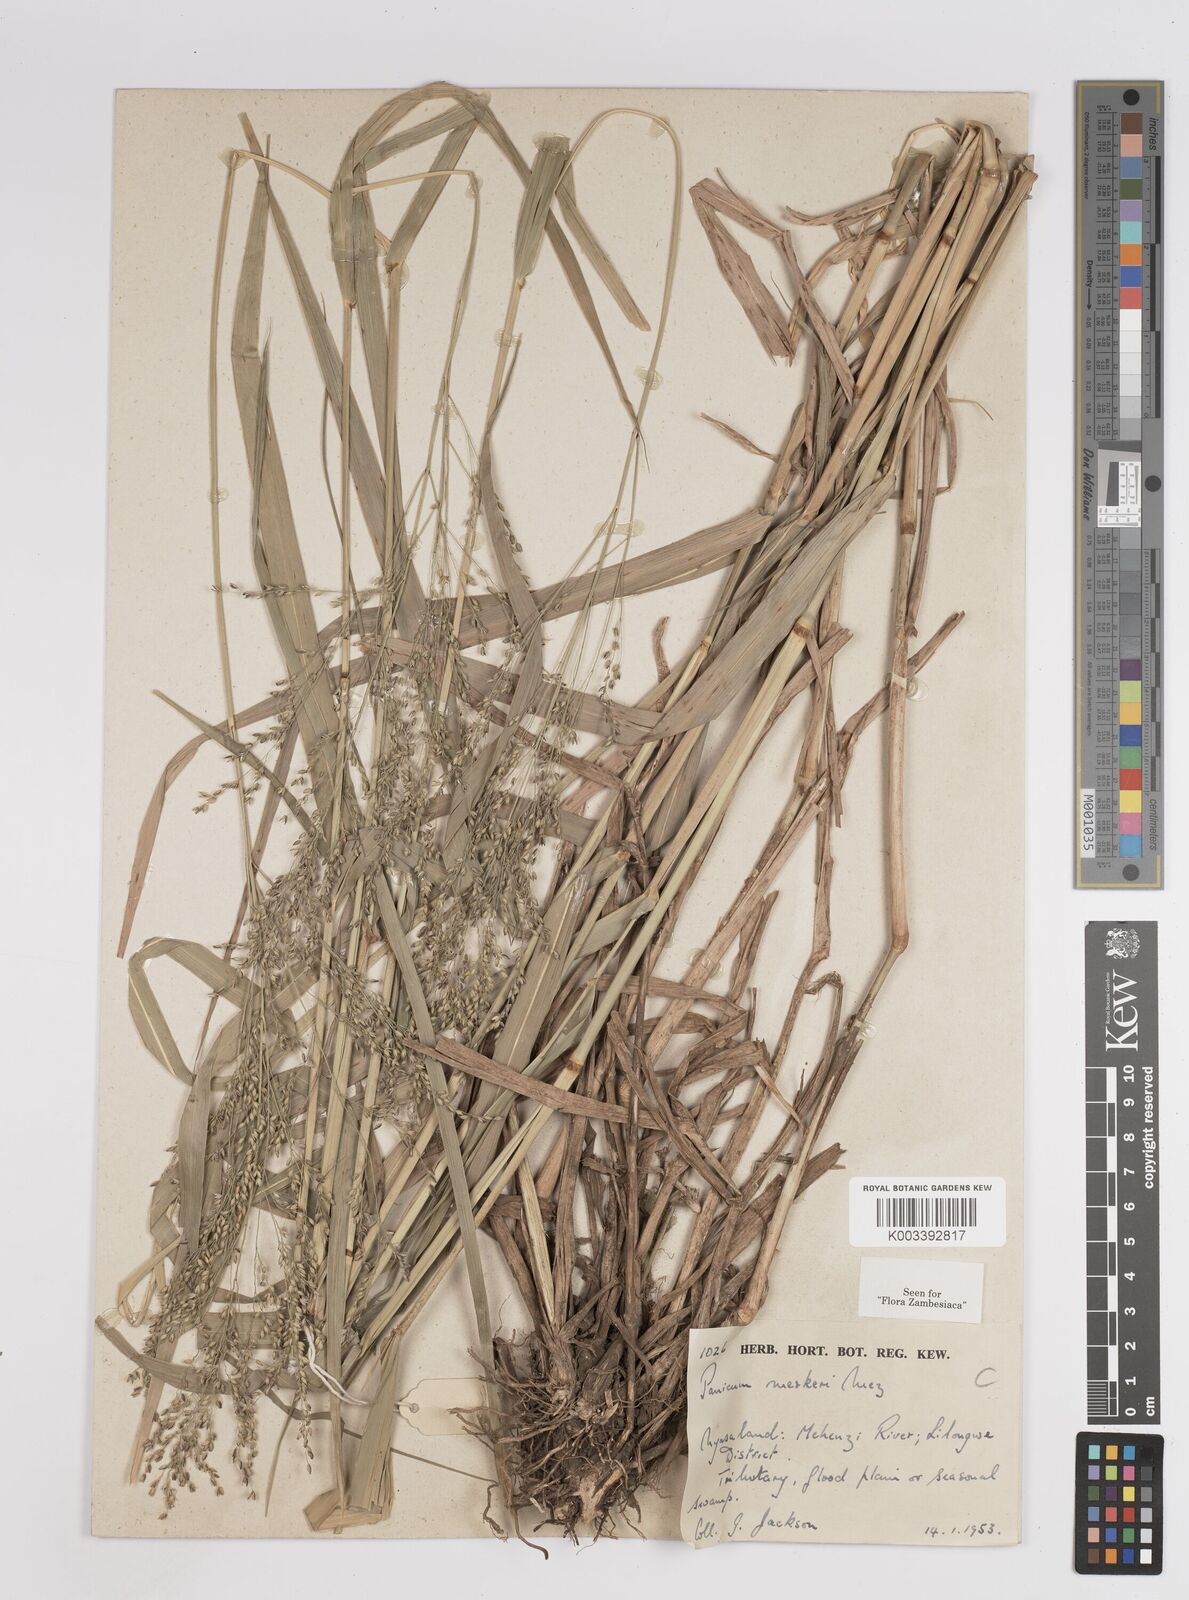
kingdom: Plantae
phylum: Tracheophyta
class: Liliopsida
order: Poales
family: Poaceae
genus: Panicum
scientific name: Panicum merkeri
